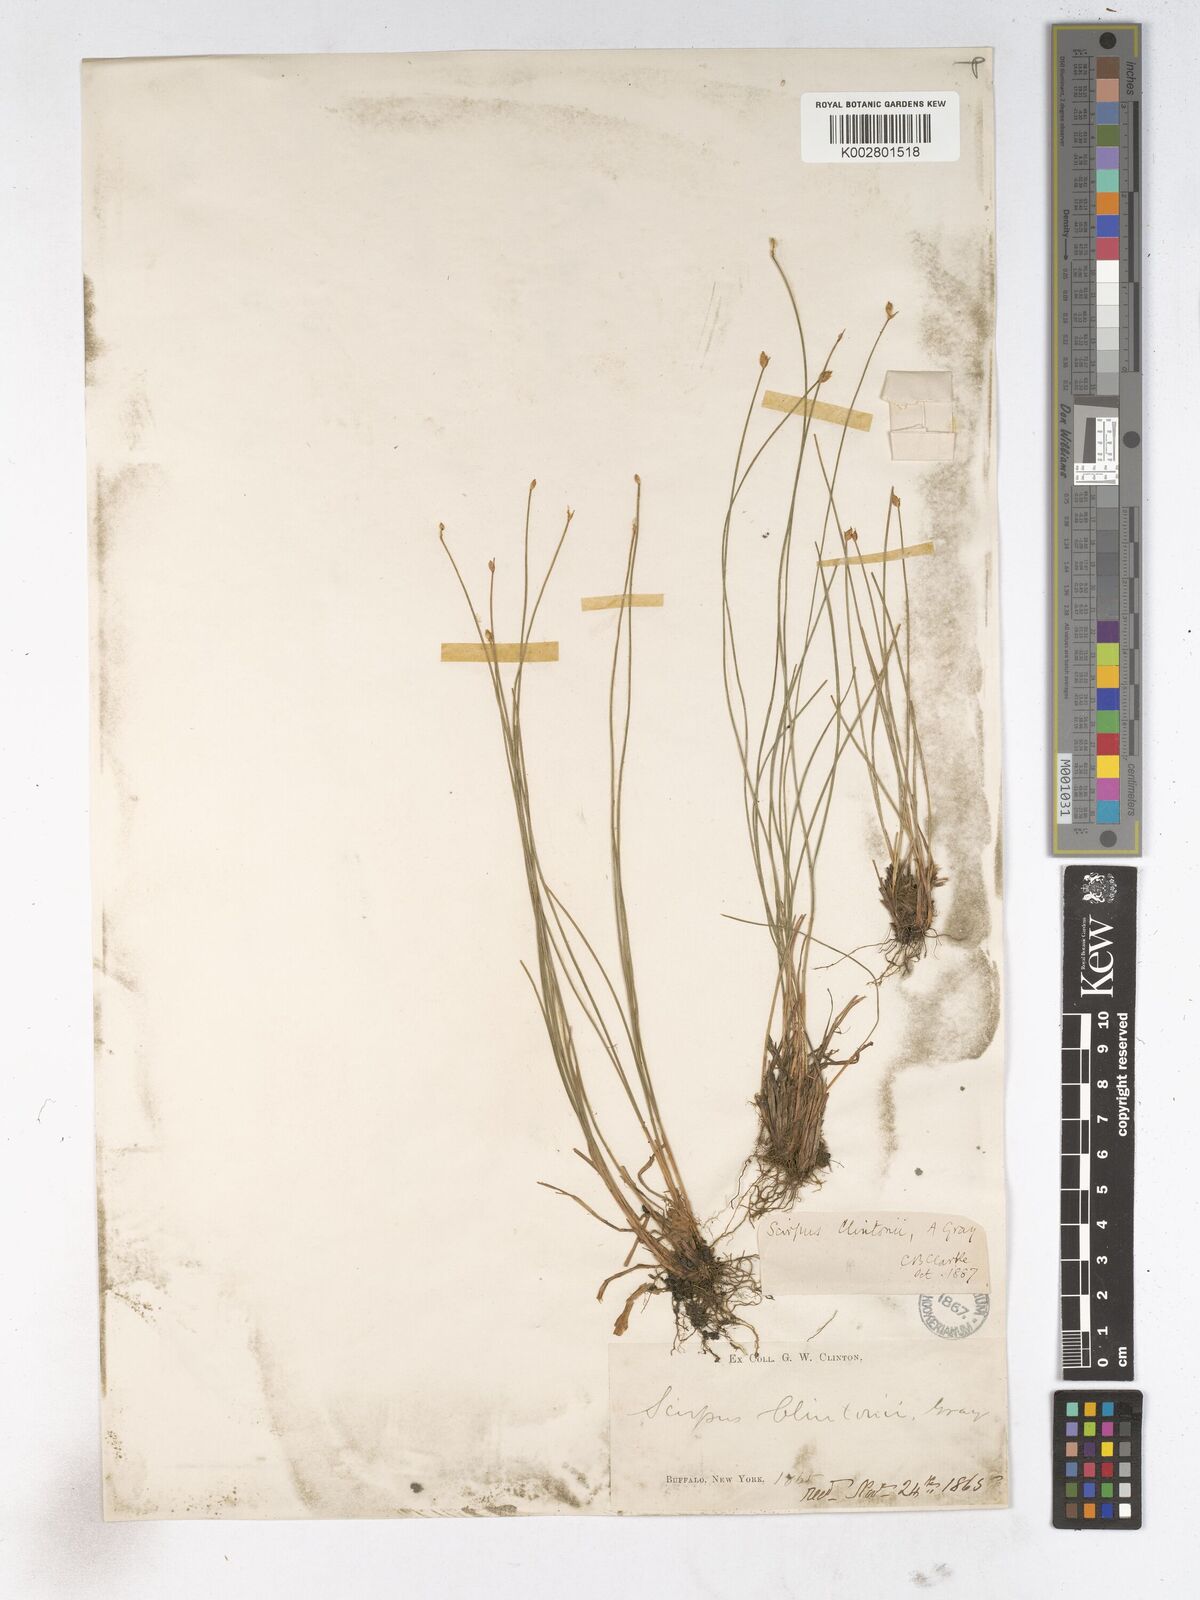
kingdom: Plantae
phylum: Tracheophyta
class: Liliopsida
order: Poales
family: Cyperaceae
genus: Trichophorum
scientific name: Trichophorum clintonii
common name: Clinton's bulrush
